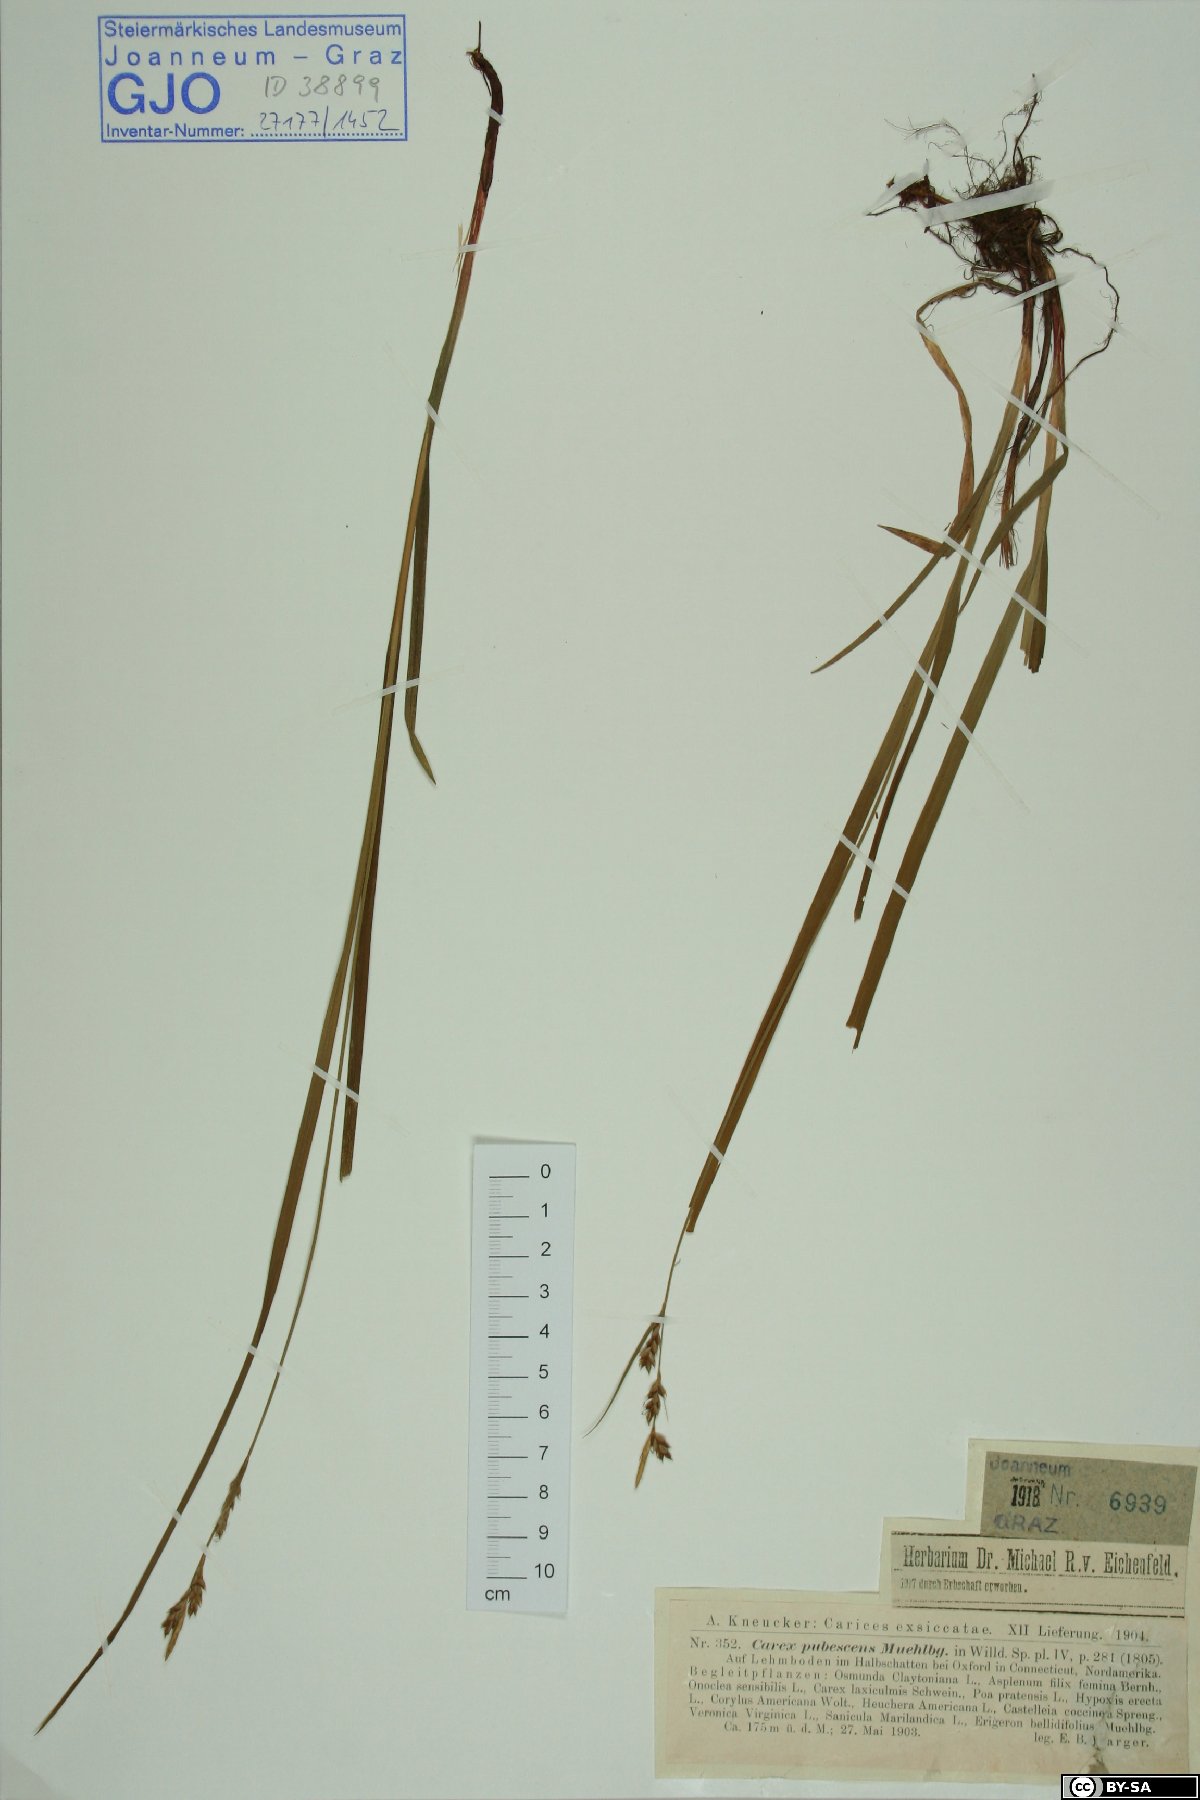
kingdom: Plantae
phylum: Tracheophyta
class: Liliopsida
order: Poales
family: Cyperaceae
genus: Carex
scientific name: Carex hirtifolia
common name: Hairy sedge
